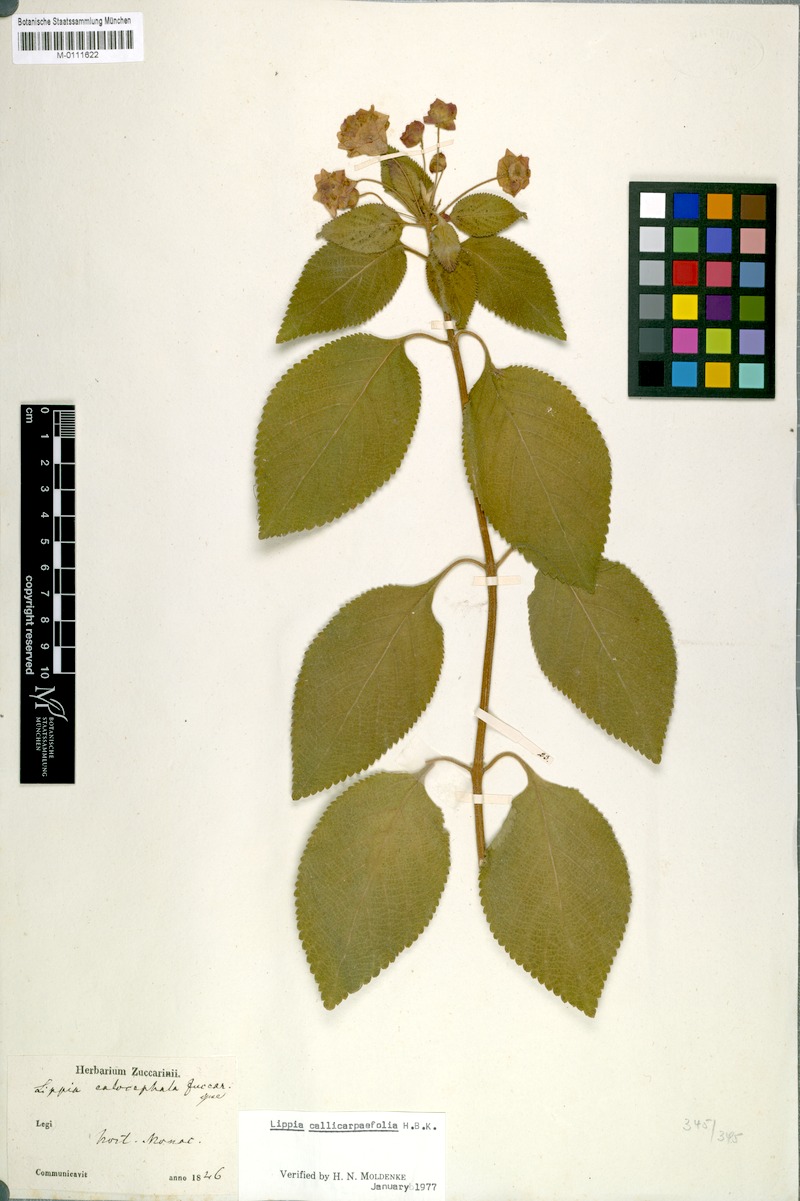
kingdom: Plantae
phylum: Tracheophyta
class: Magnoliopsida
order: Lamiales
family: Verbenaceae
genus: Lippia
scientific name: Lippia umbellata
